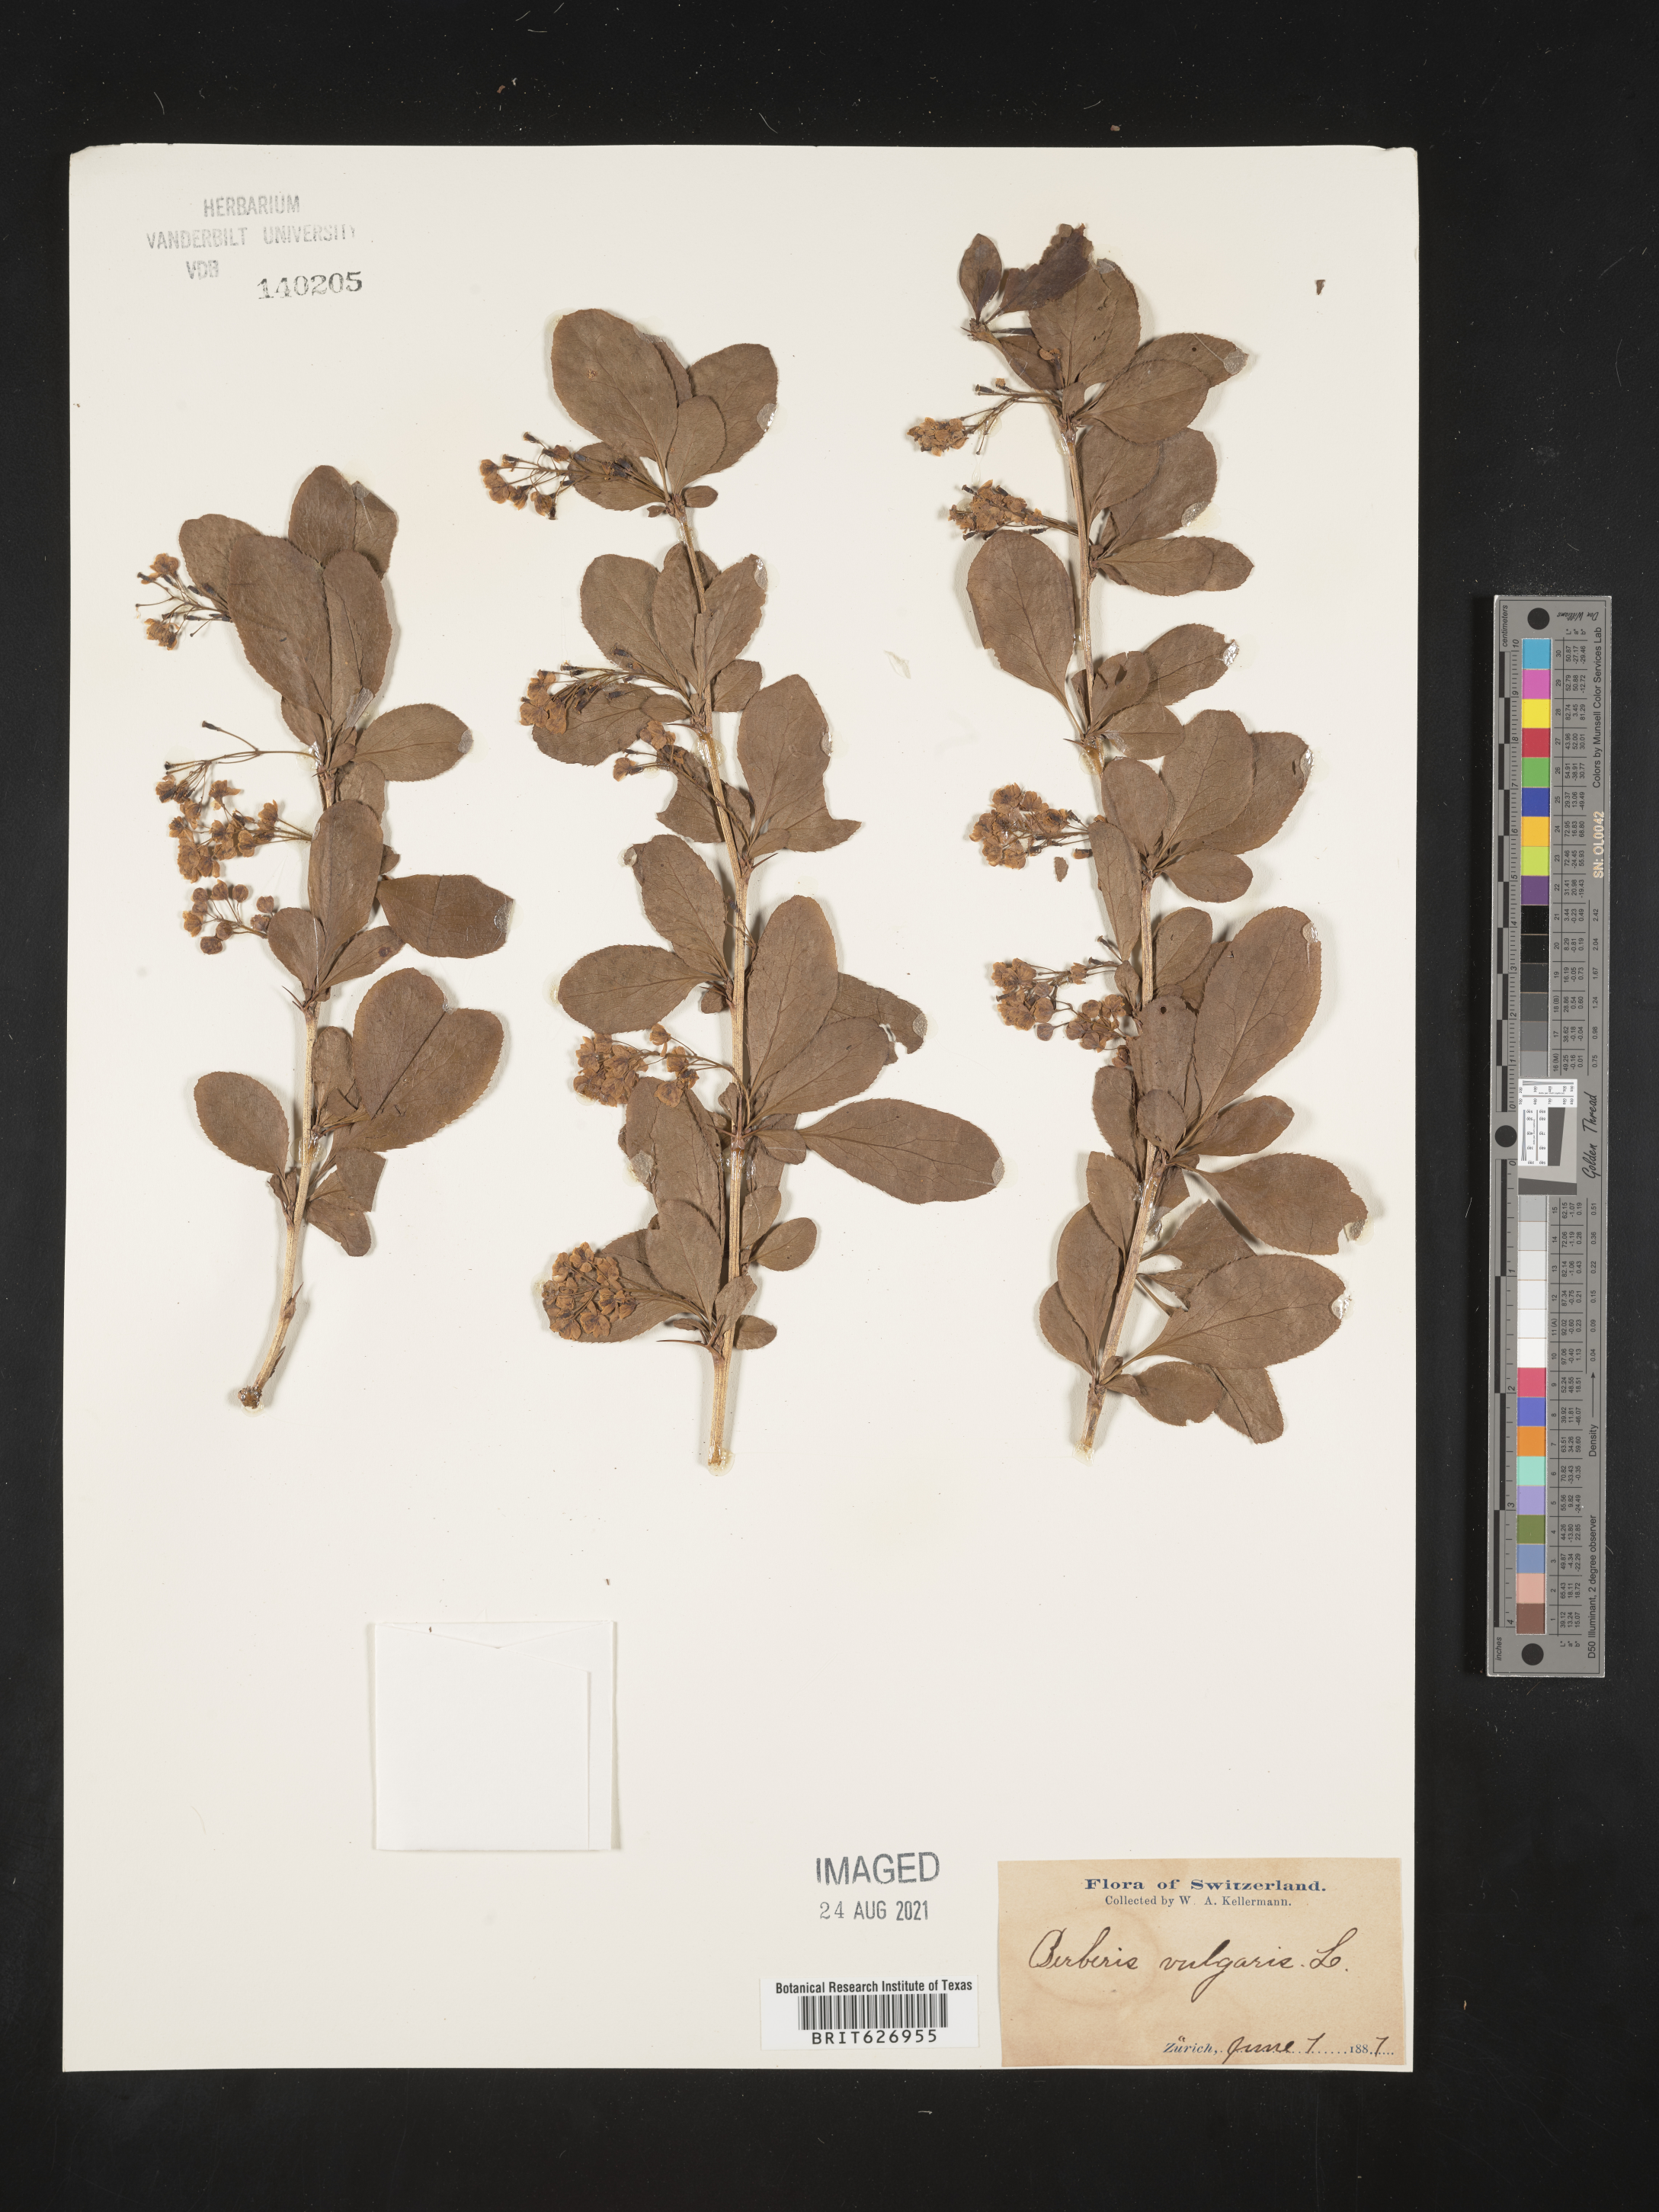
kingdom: Plantae
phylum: Tracheophyta
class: Magnoliopsida
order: Ranunculales
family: Berberidaceae
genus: Berberis
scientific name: Berberis vulgaris
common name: Barberry
